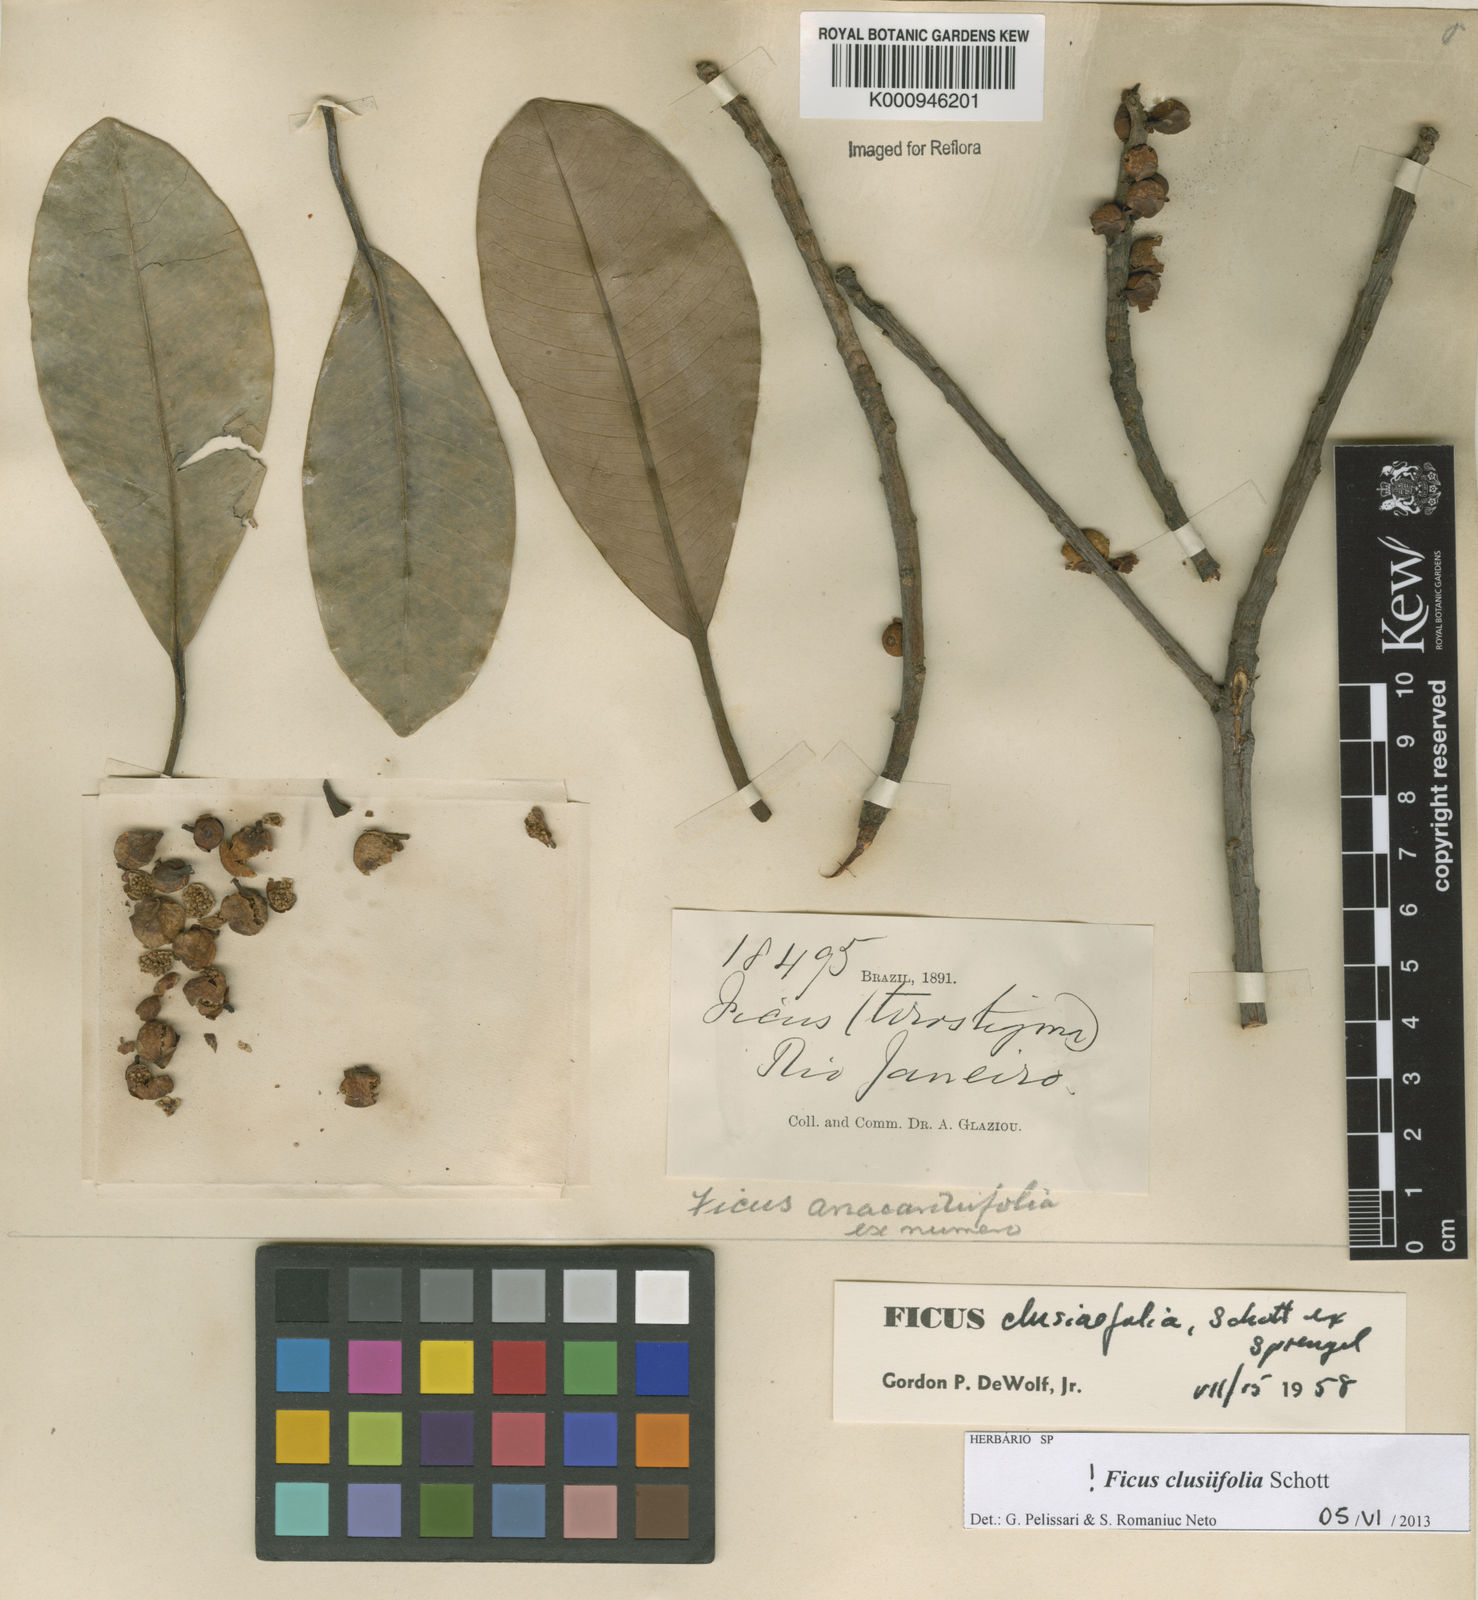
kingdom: Plantae
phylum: Tracheophyta
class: Magnoliopsida
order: Rosales
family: Moraceae
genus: Ficus
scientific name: Ficus
